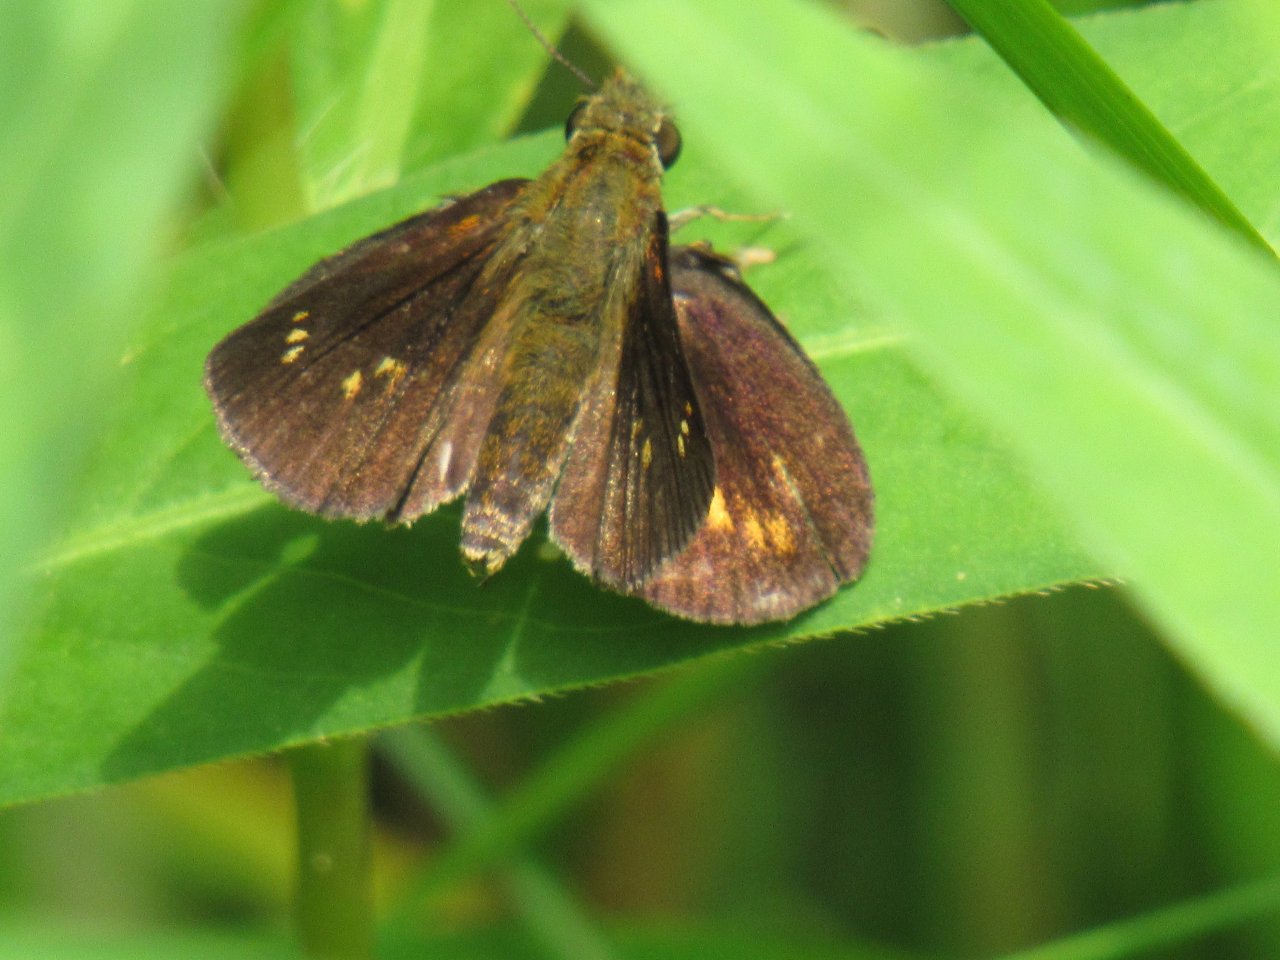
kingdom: Animalia
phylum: Arthropoda
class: Insecta
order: Lepidoptera
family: Hesperiidae
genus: Poanes
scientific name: Poanes massasoit
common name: Mulberry Wing
